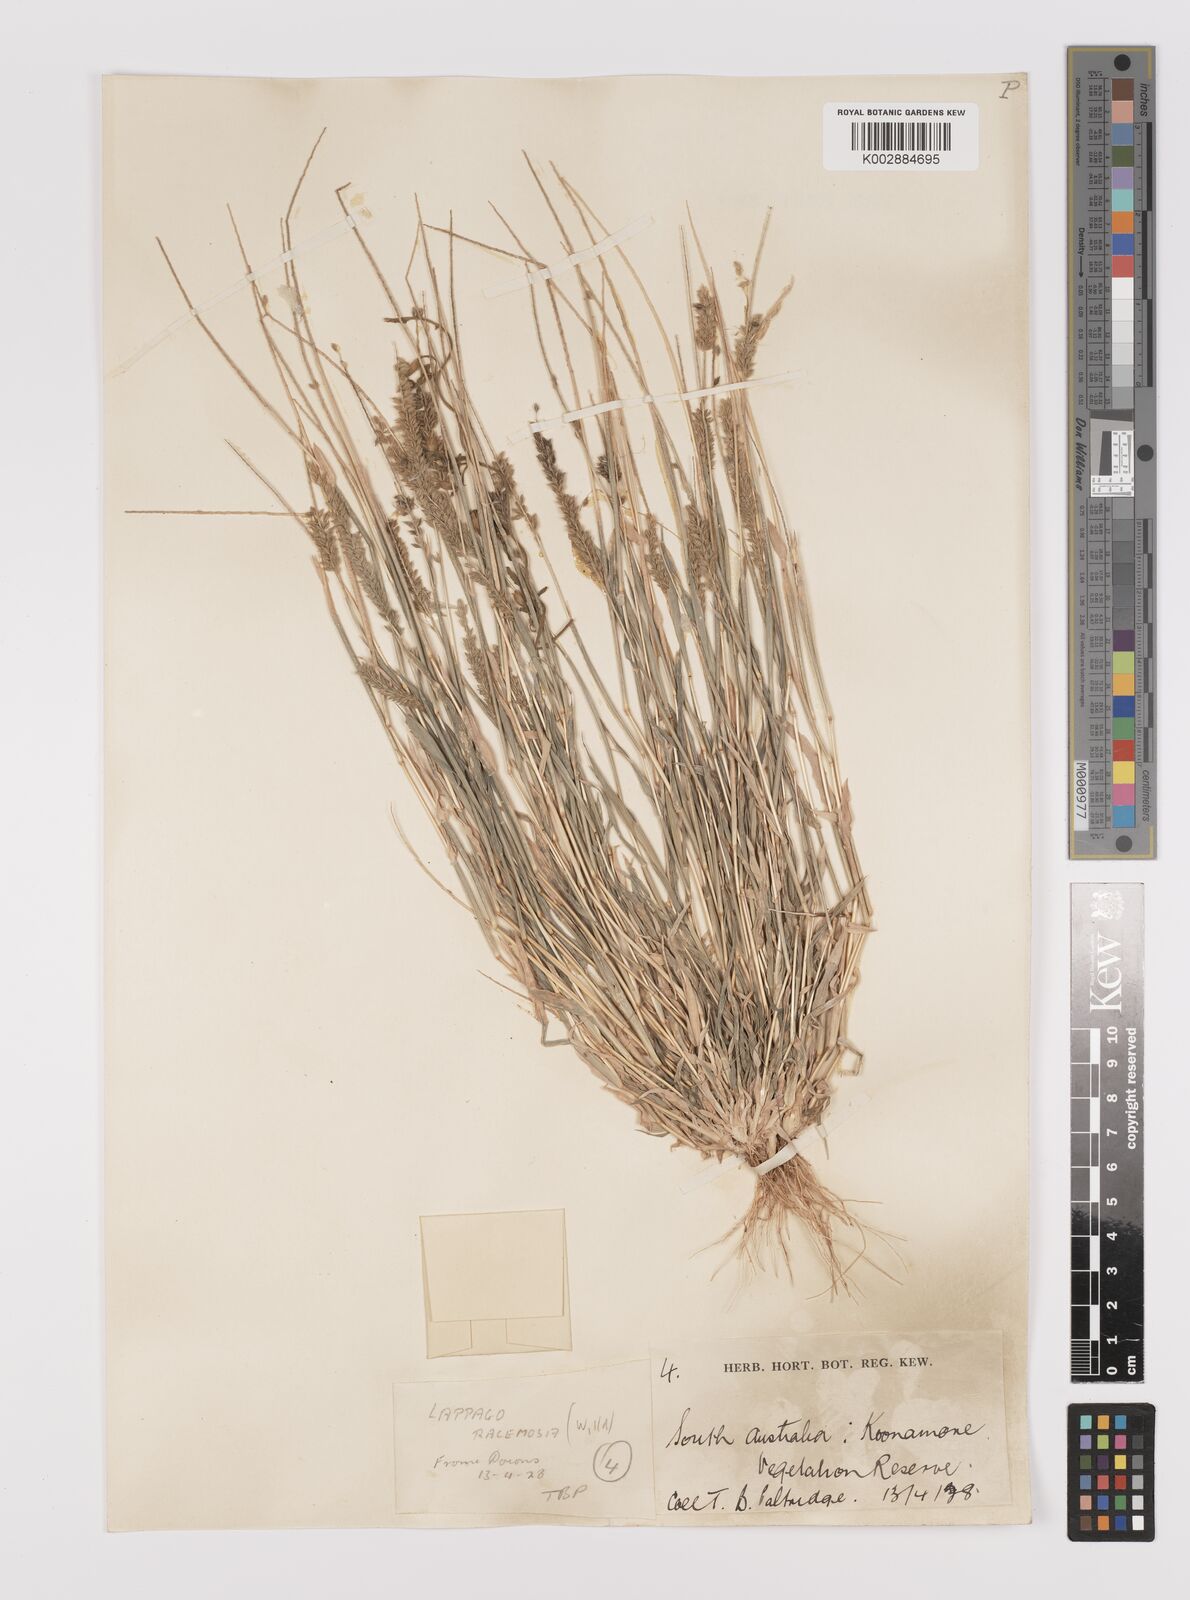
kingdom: Plantae
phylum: Tracheophyta
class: Liliopsida
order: Poales
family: Poaceae
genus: Tragus
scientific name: Tragus australianus
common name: Australian bur-grass
